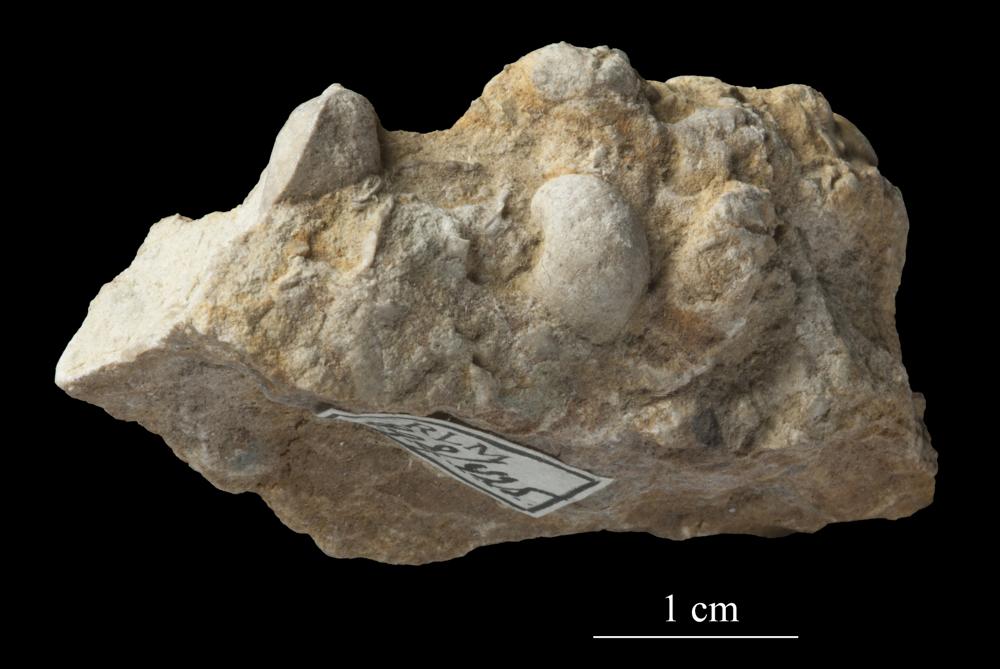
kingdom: Animalia
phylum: Mollusca
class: Gastropoda
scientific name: Gastropoda
